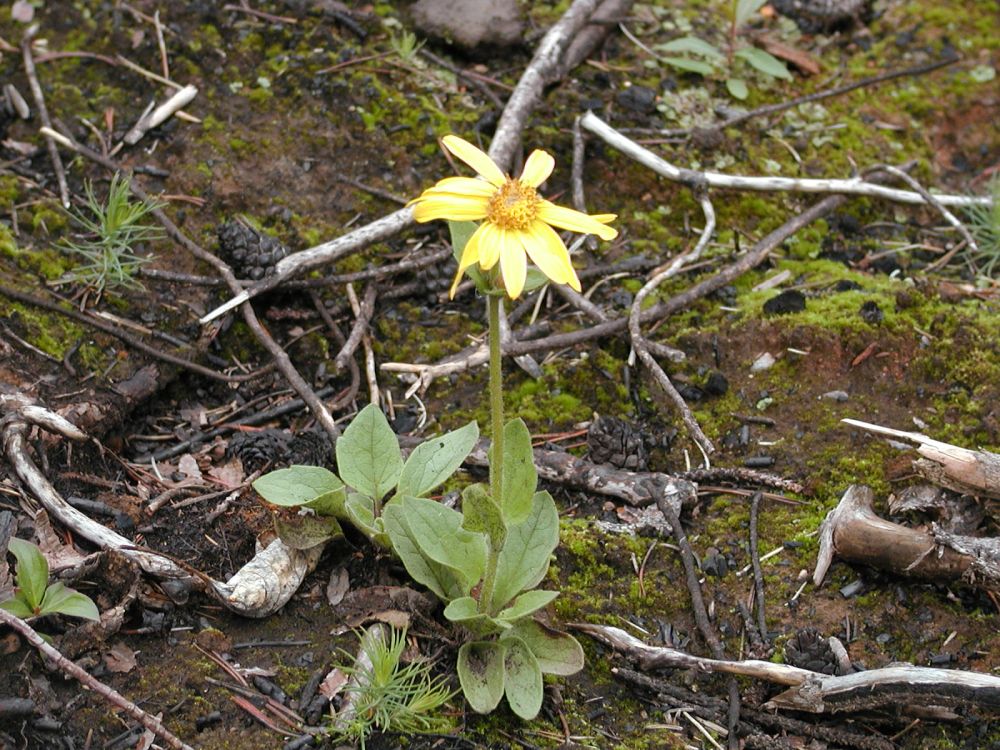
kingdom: Plantae
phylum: Tracheophyta
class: Magnoliopsida
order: Asterales
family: Asteraceae
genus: Arnica
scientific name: Arnica latifolia
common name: Arnica
